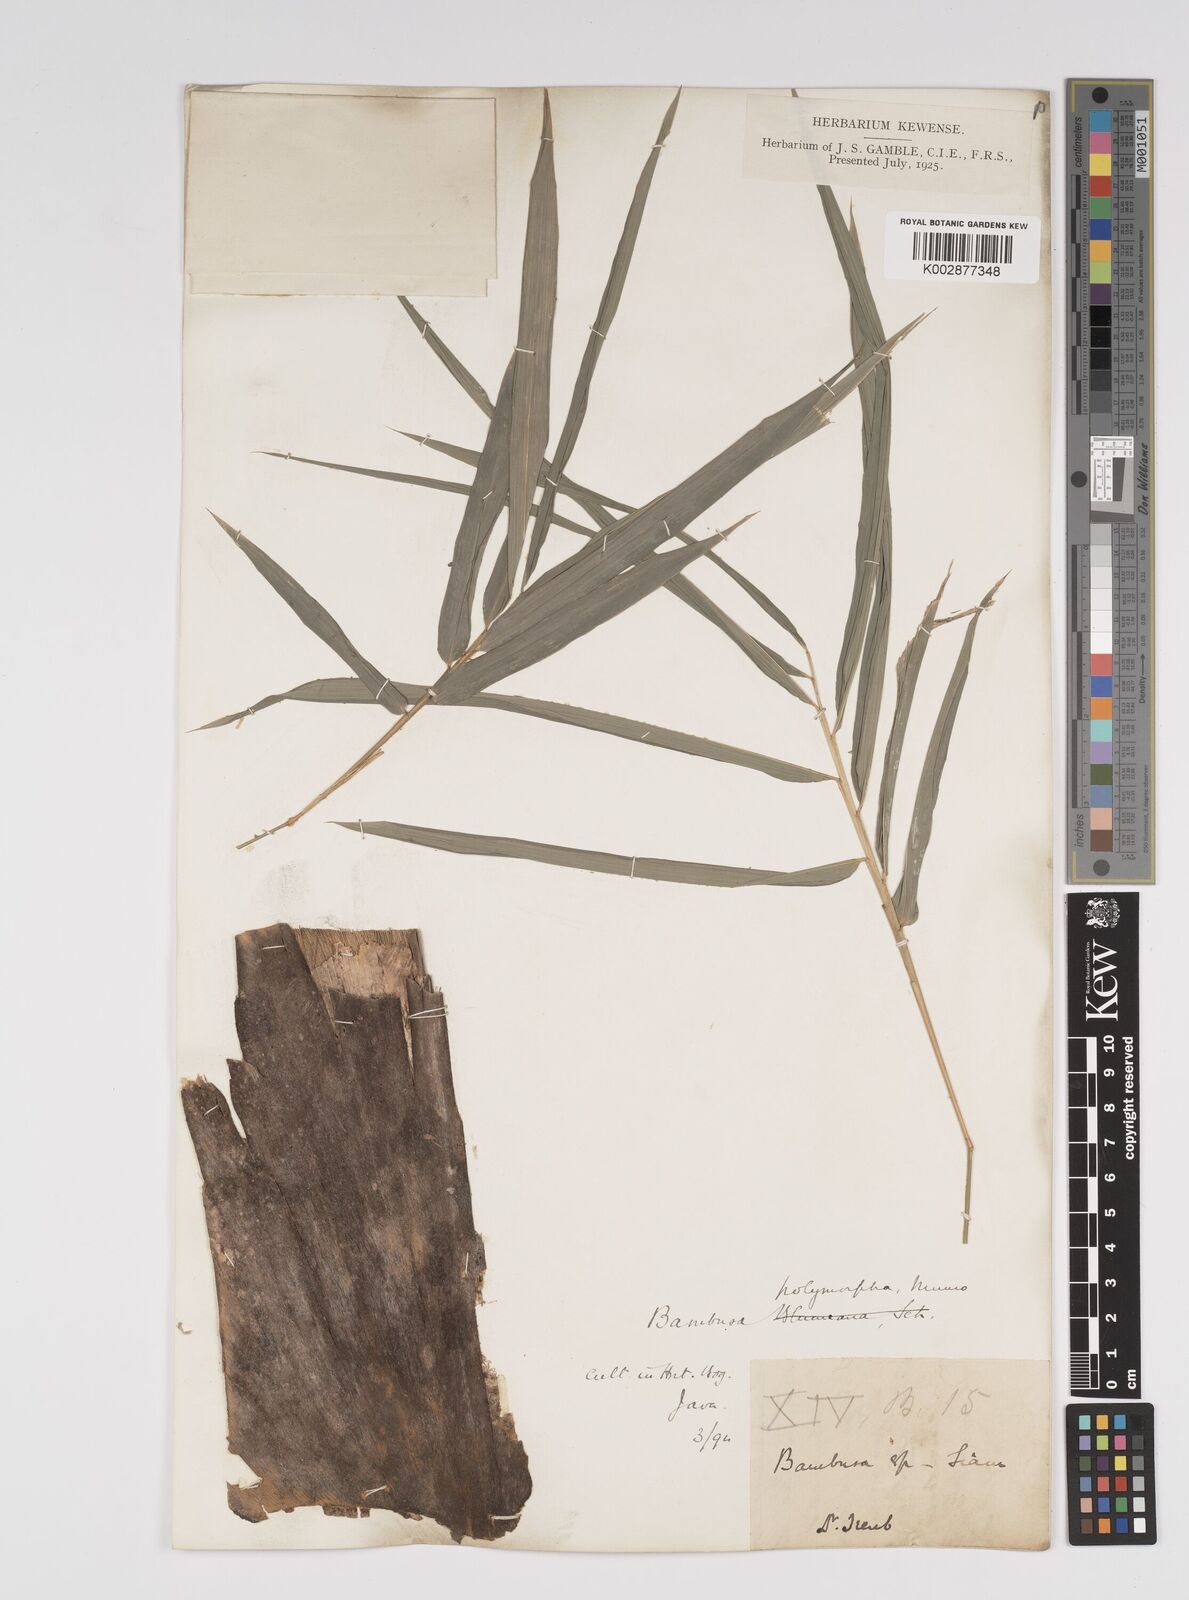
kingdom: Plantae
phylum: Tracheophyta
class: Liliopsida
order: Poales
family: Poaceae
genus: Bambusa
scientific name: Bambusa polymorpha
